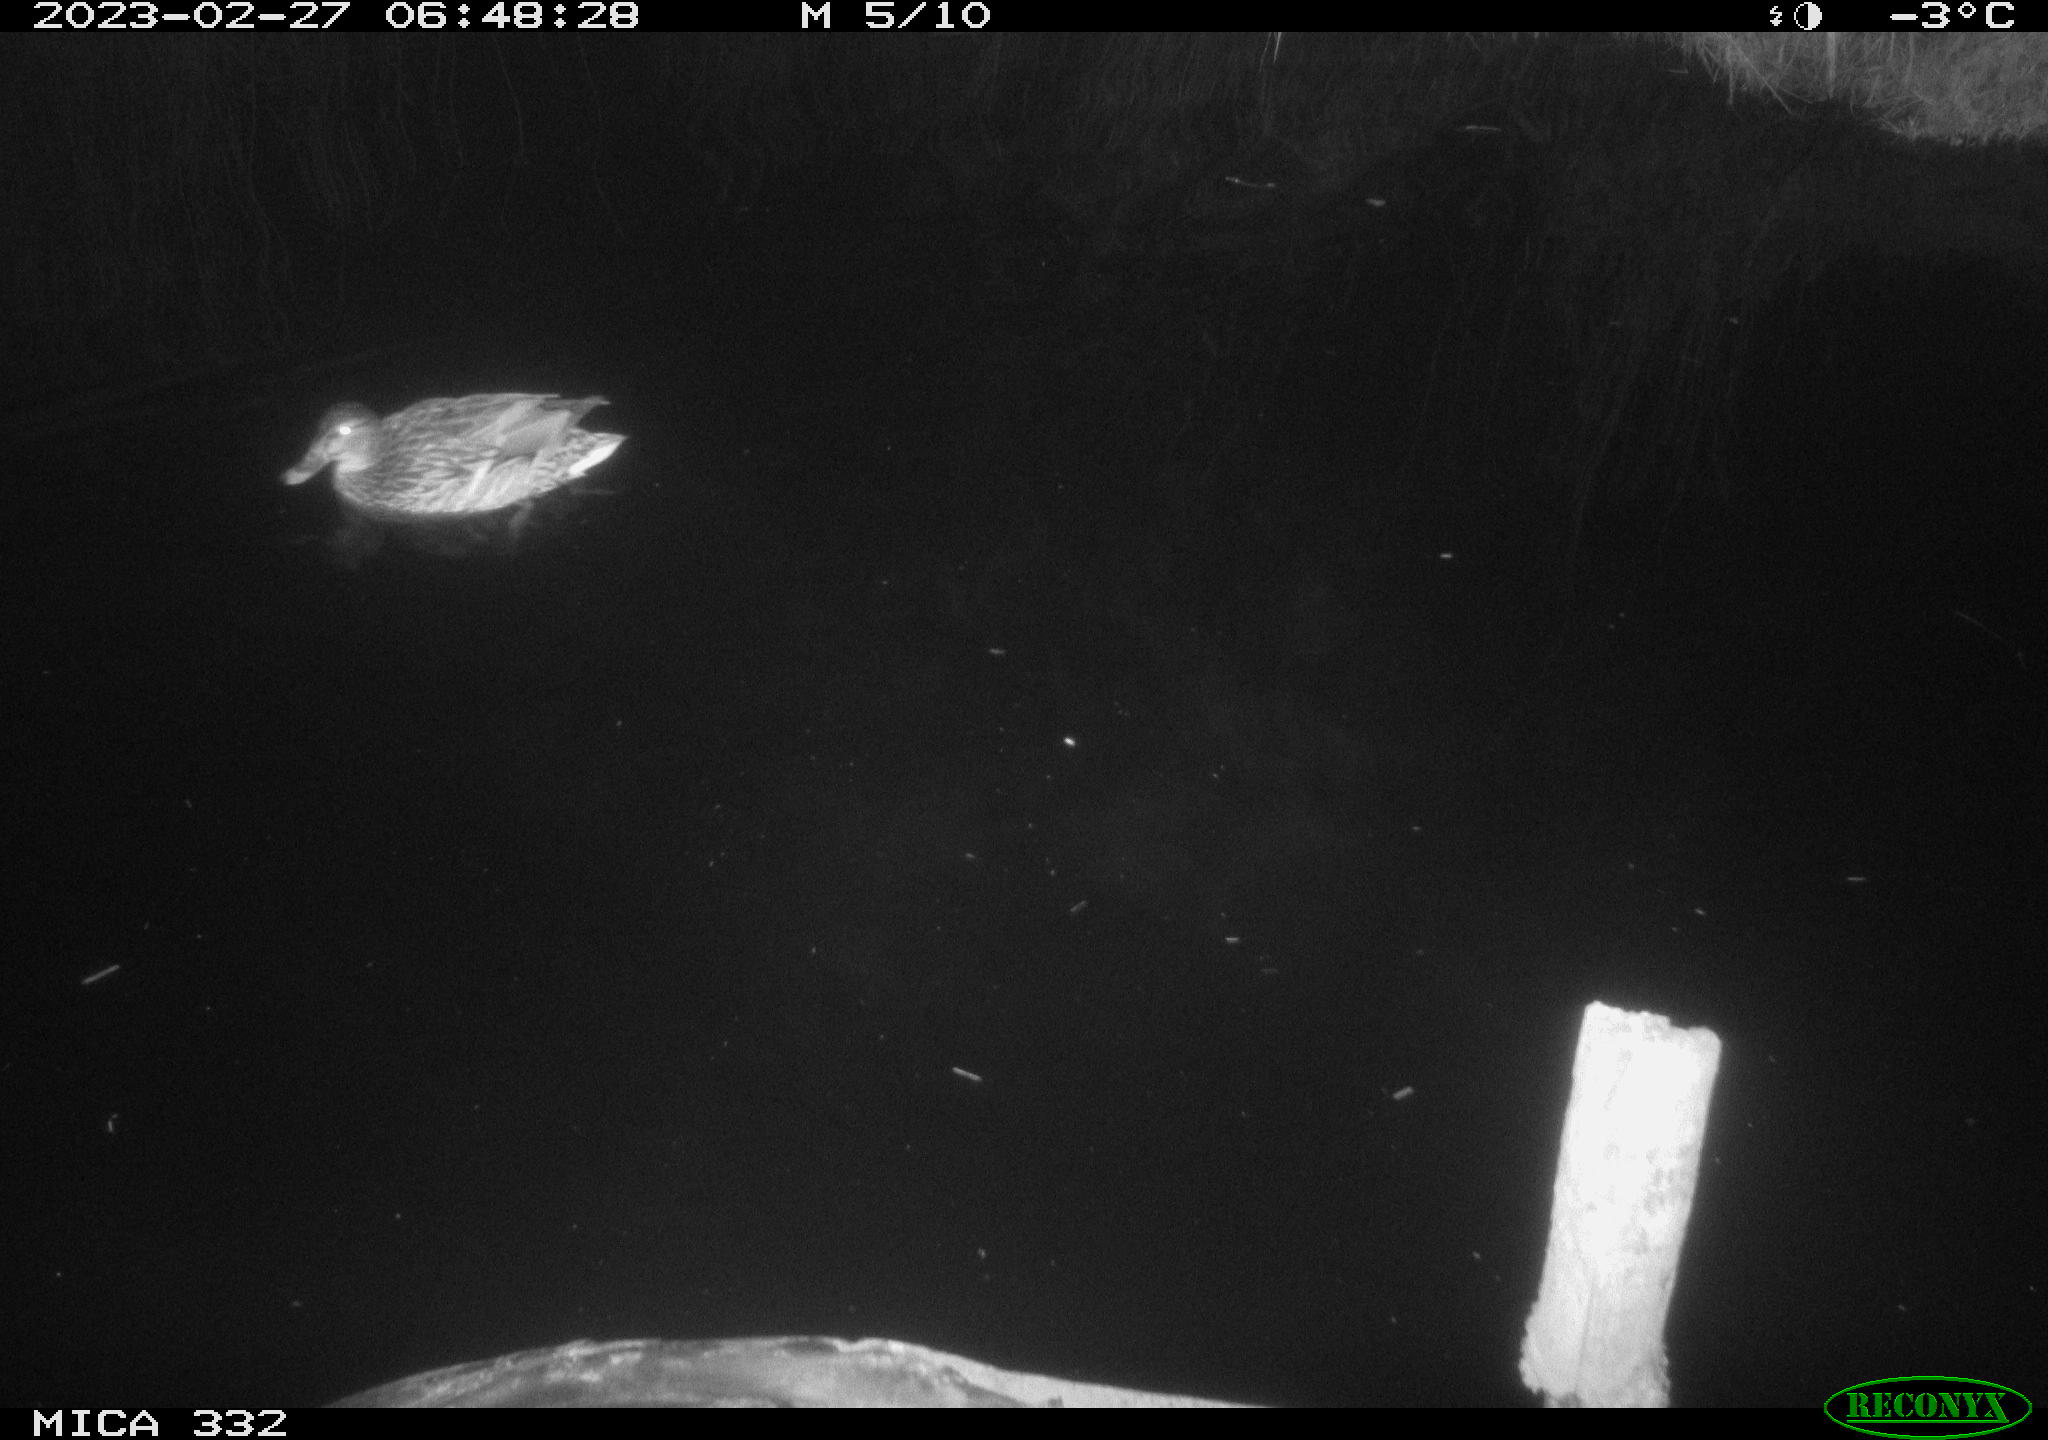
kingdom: Animalia
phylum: Chordata
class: Aves
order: Anseriformes
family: Anatidae
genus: Anas
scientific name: Anas
